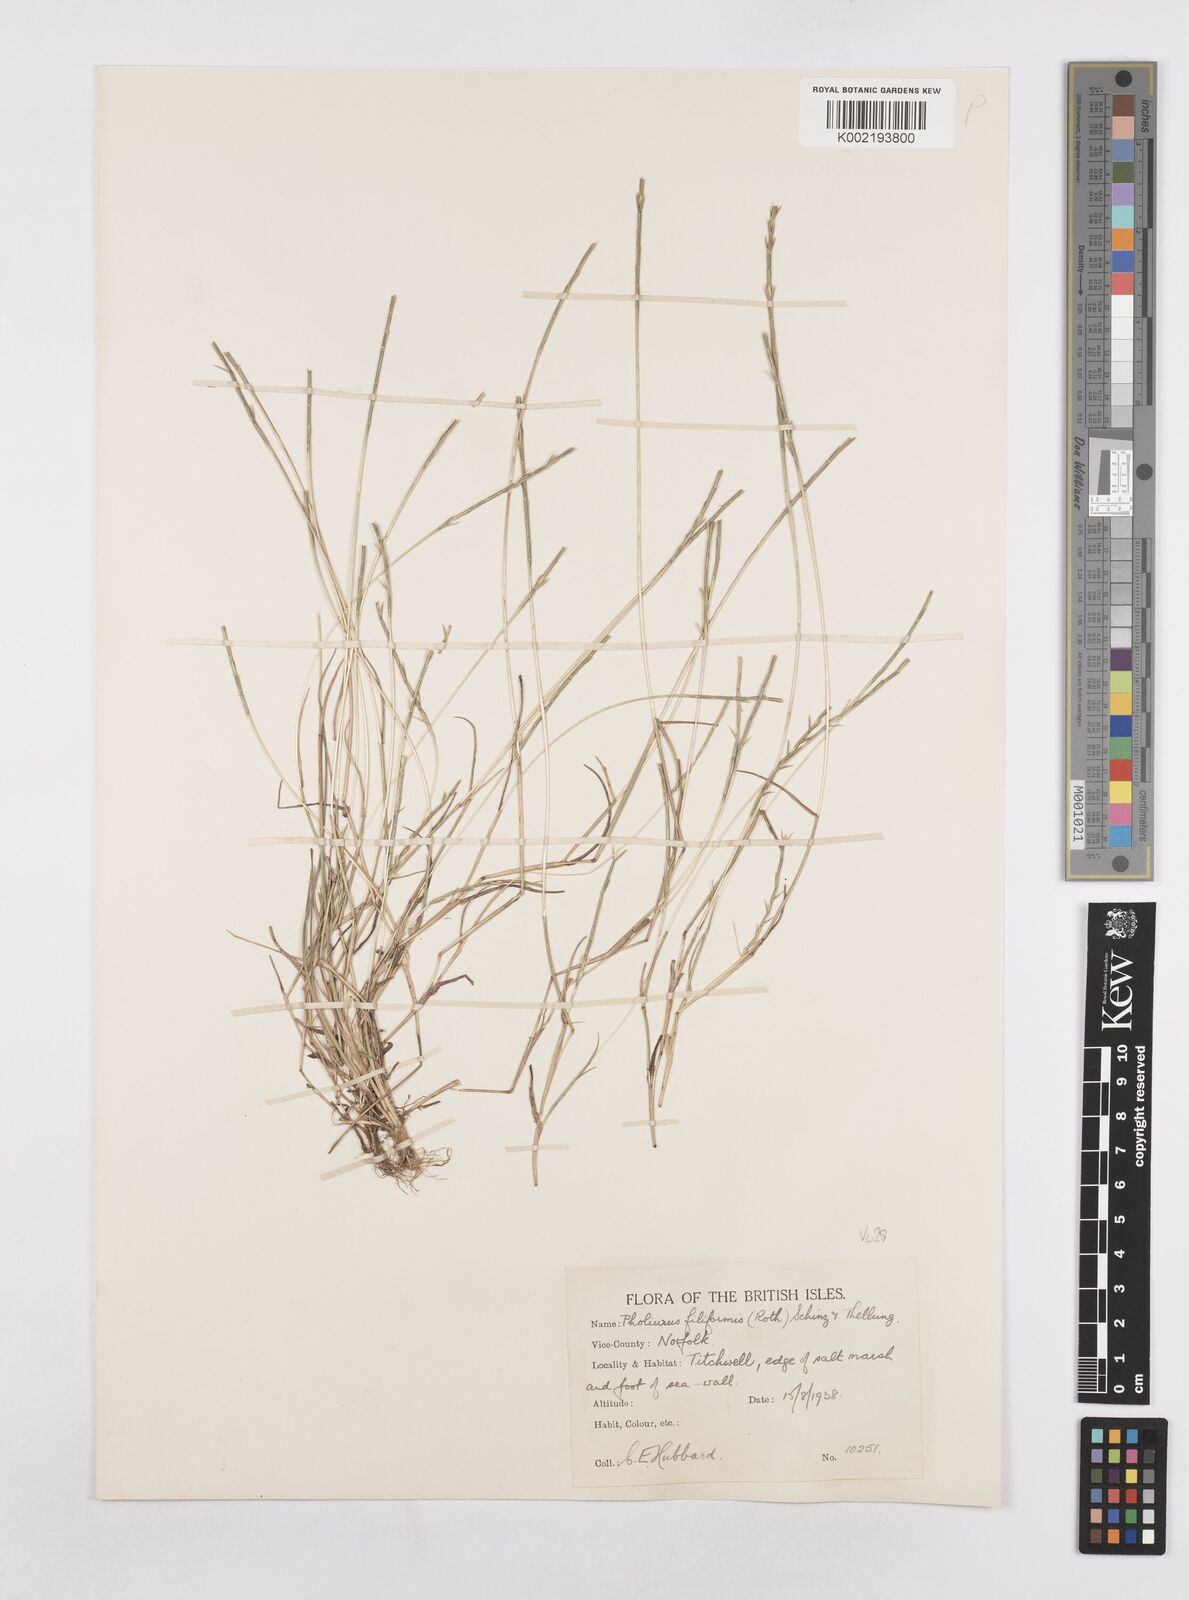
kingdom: Plantae
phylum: Tracheophyta
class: Liliopsida
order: Poales
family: Poaceae
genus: Parapholis
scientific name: Parapholis
